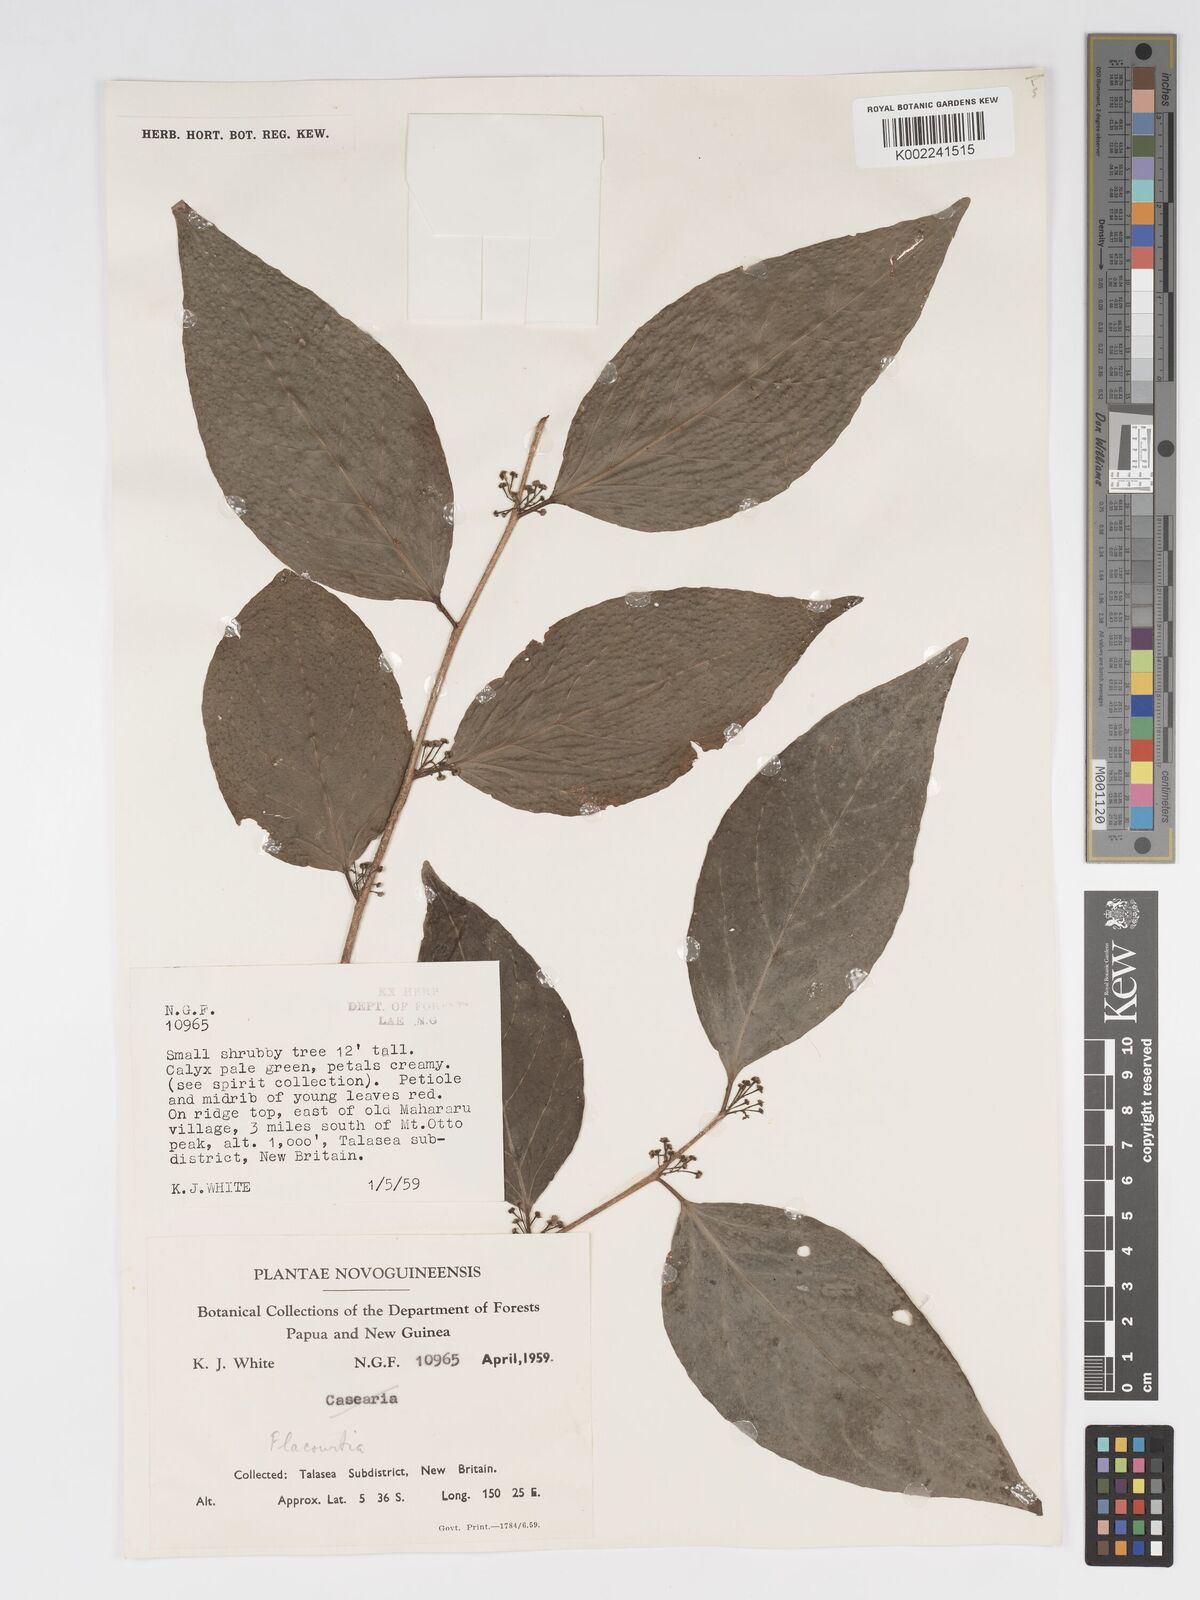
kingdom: Plantae
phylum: Tracheophyta
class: Magnoliopsida
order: Malpighiales
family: Salicaceae
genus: Flacourtia
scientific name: Flacourtia
